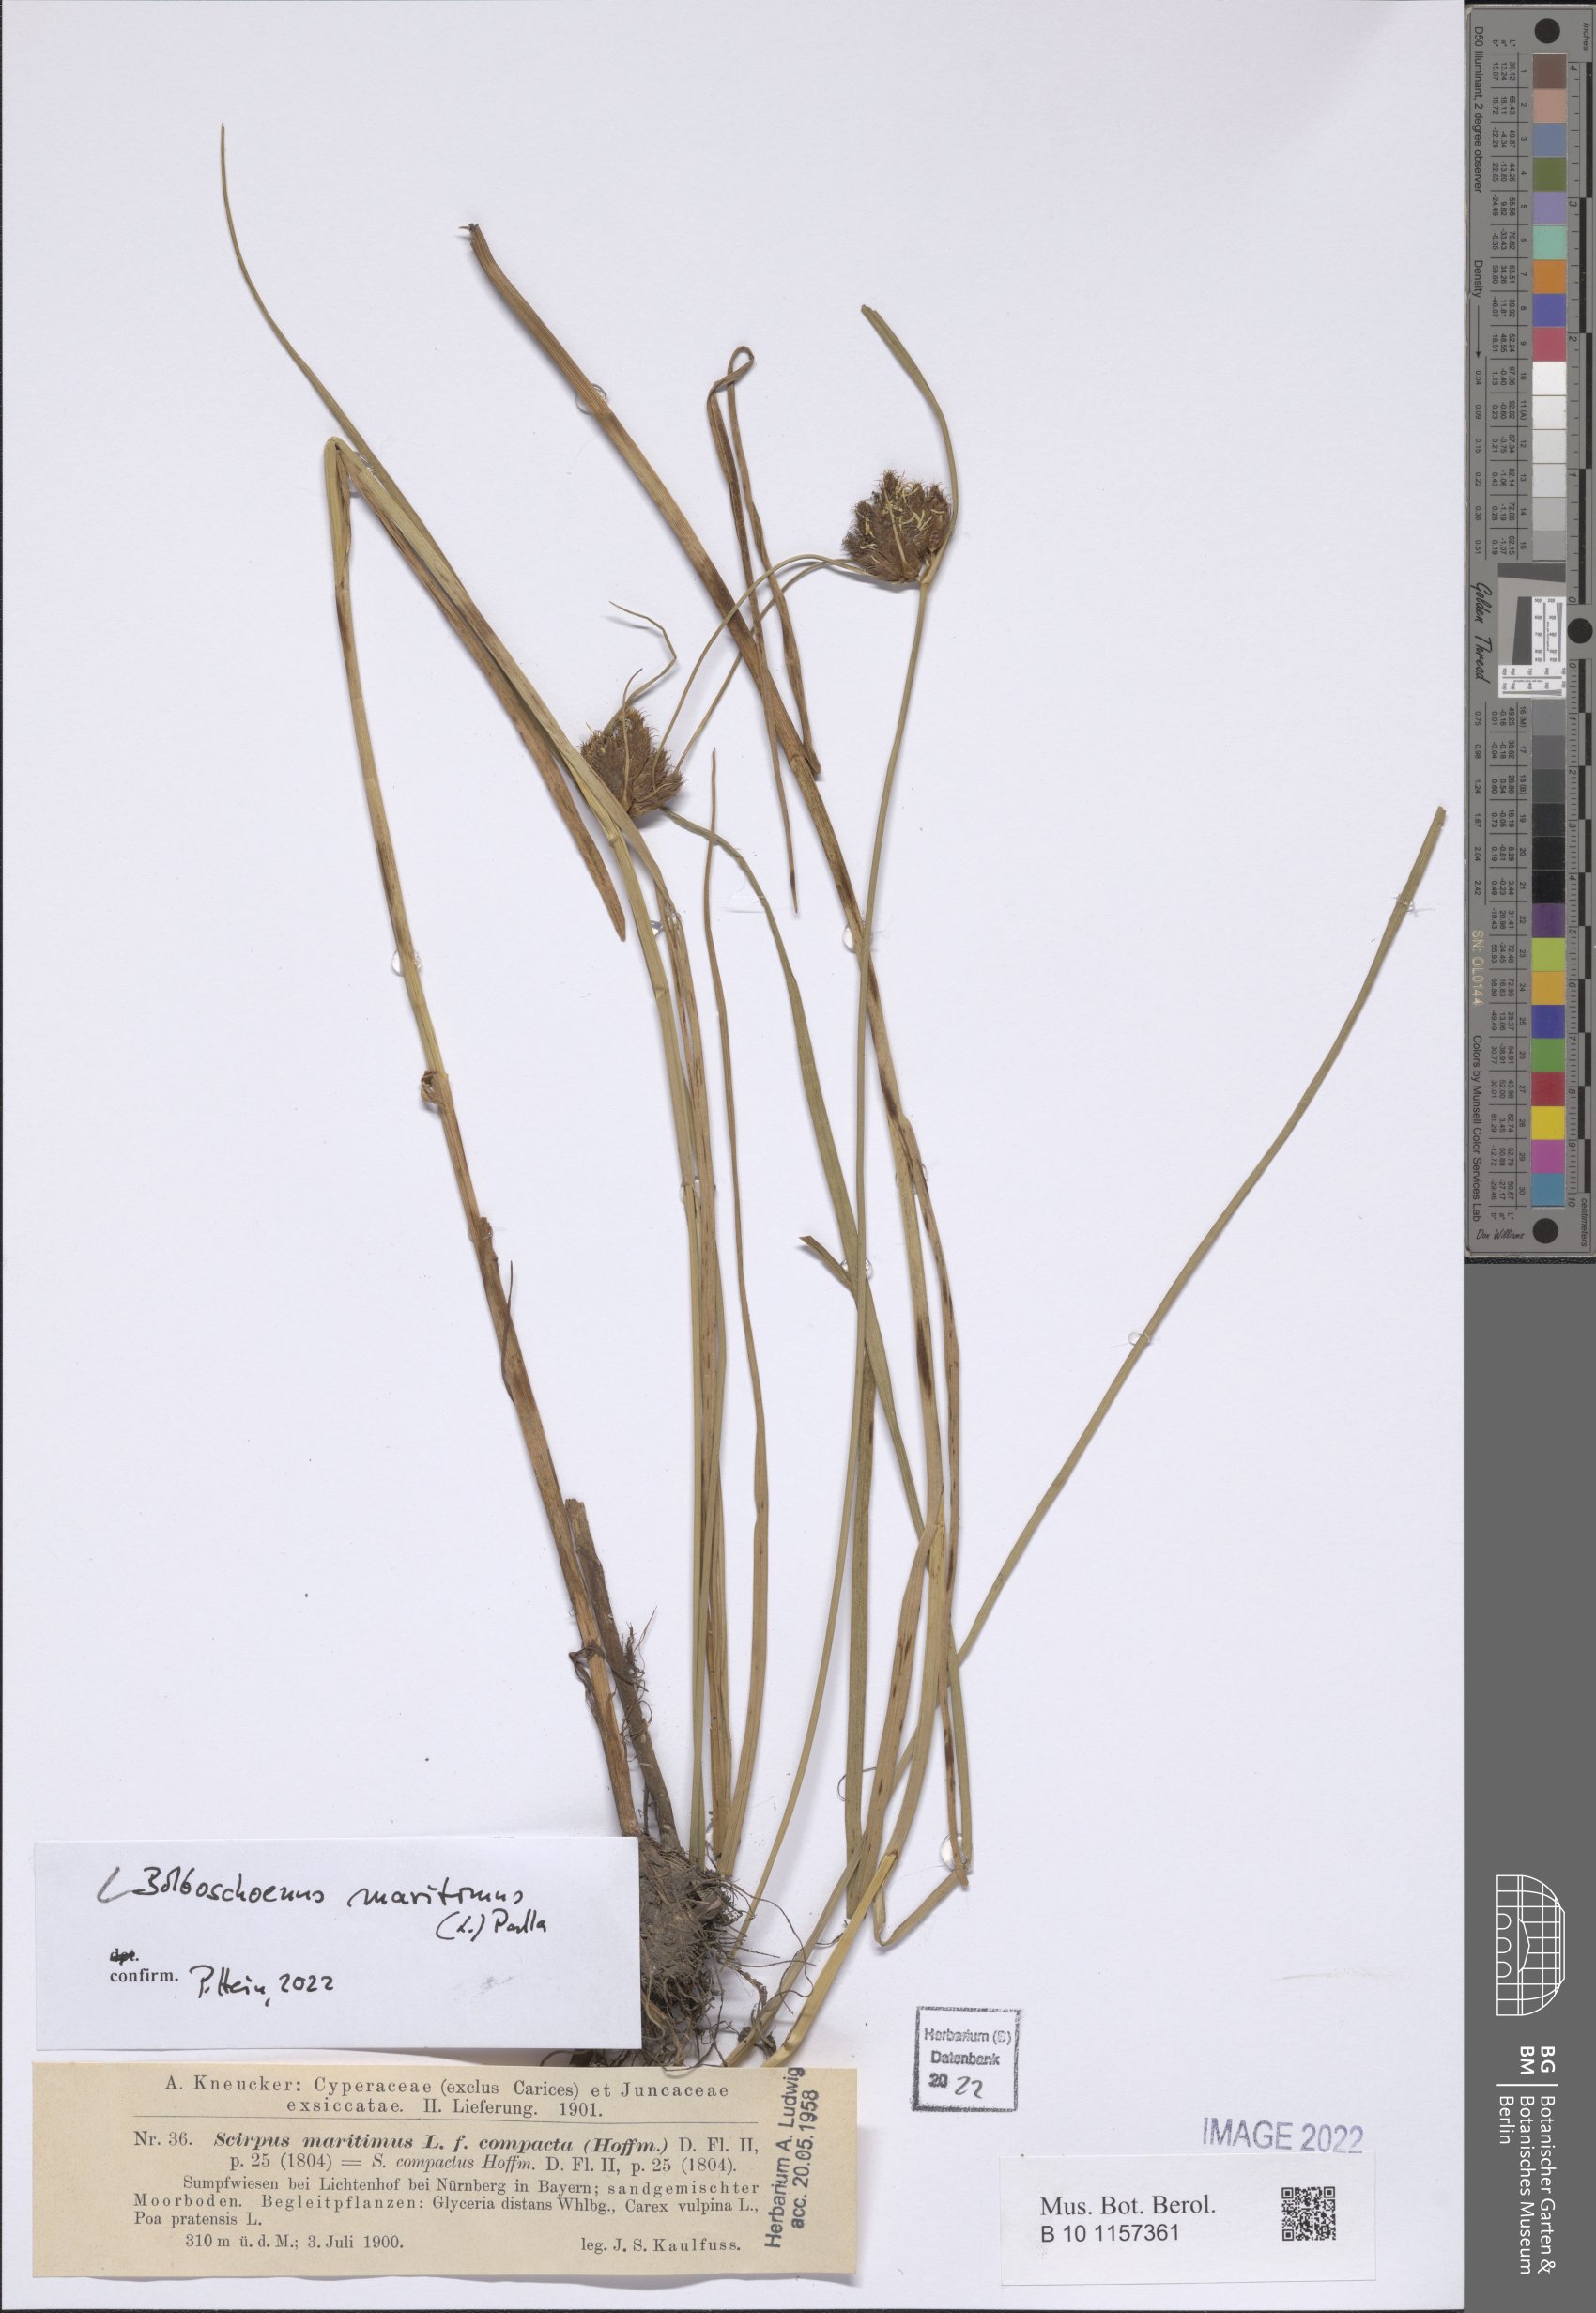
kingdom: Plantae
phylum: Tracheophyta
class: Liliopsida
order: Poales
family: Cyperaceae
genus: Bolboschoenus
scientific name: Bolboschoenus maritimus
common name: Sea club-rush
